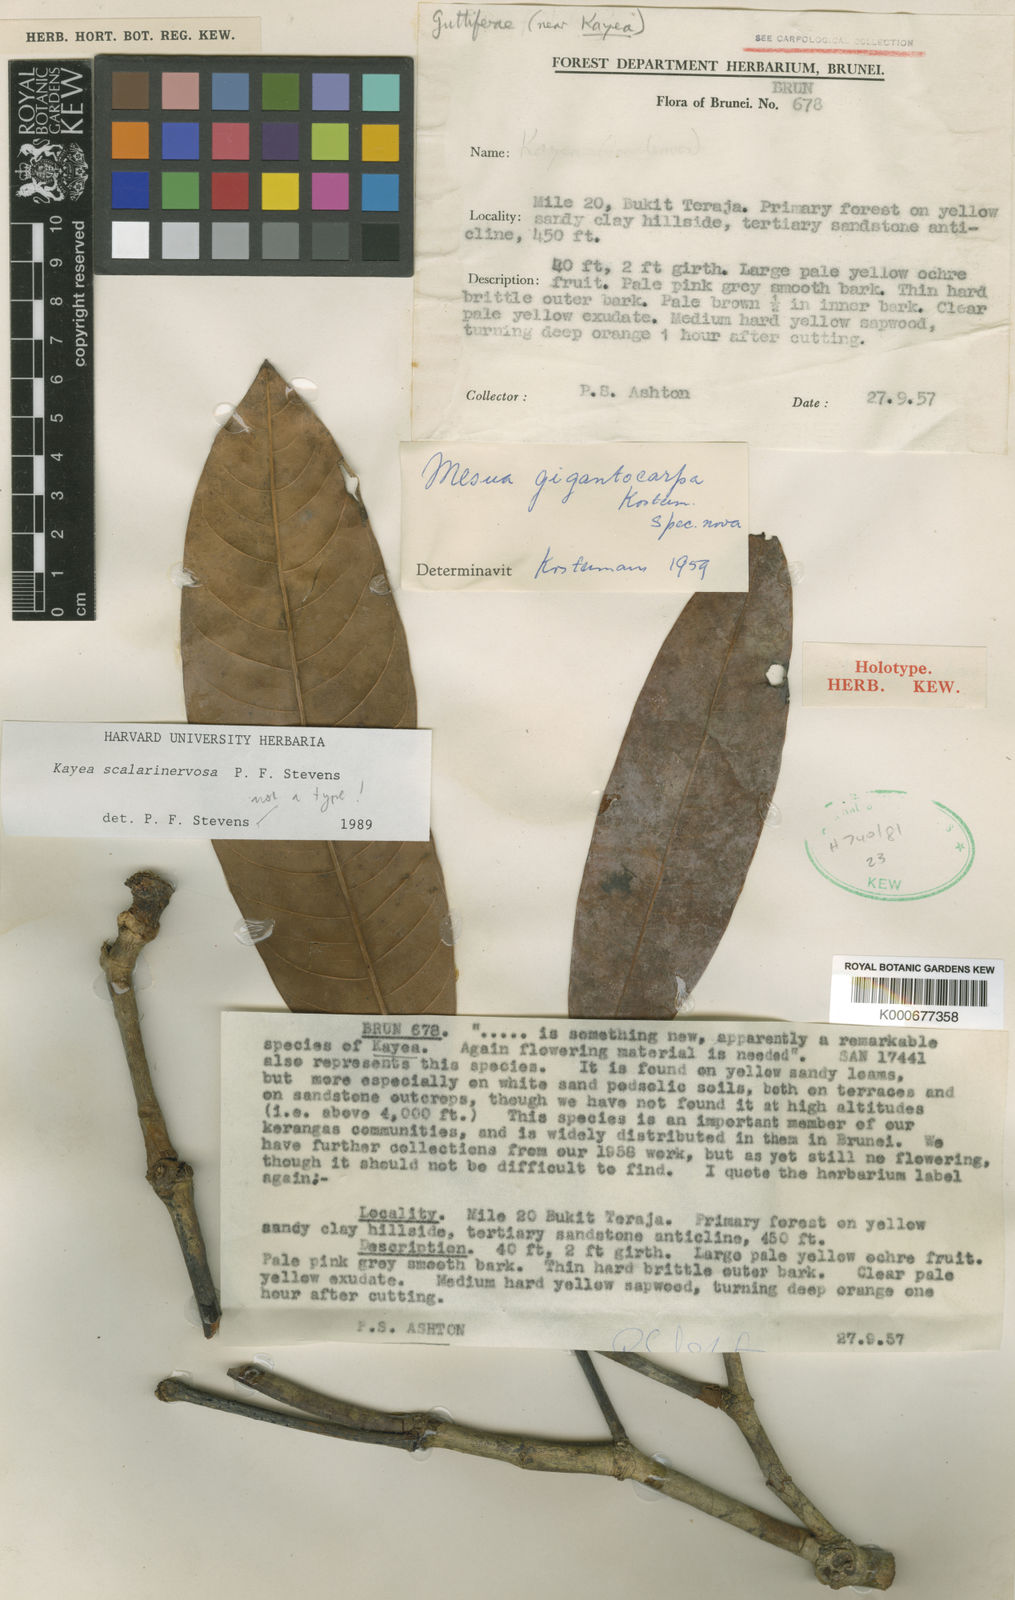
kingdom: Plantae
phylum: Tracheophyta
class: Magnoliopsida
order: Malpighiales
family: Calophyllaceae
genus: Kayea
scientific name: Kayea scalarinervosa
